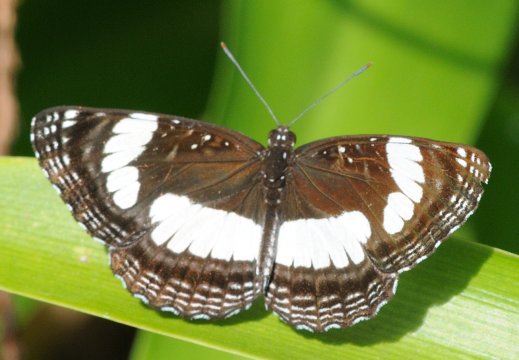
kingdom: Animalia
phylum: Arthropoda
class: Insecta
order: Lepidoptera
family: Nymphalidae
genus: Neptis
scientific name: Neptis serena
